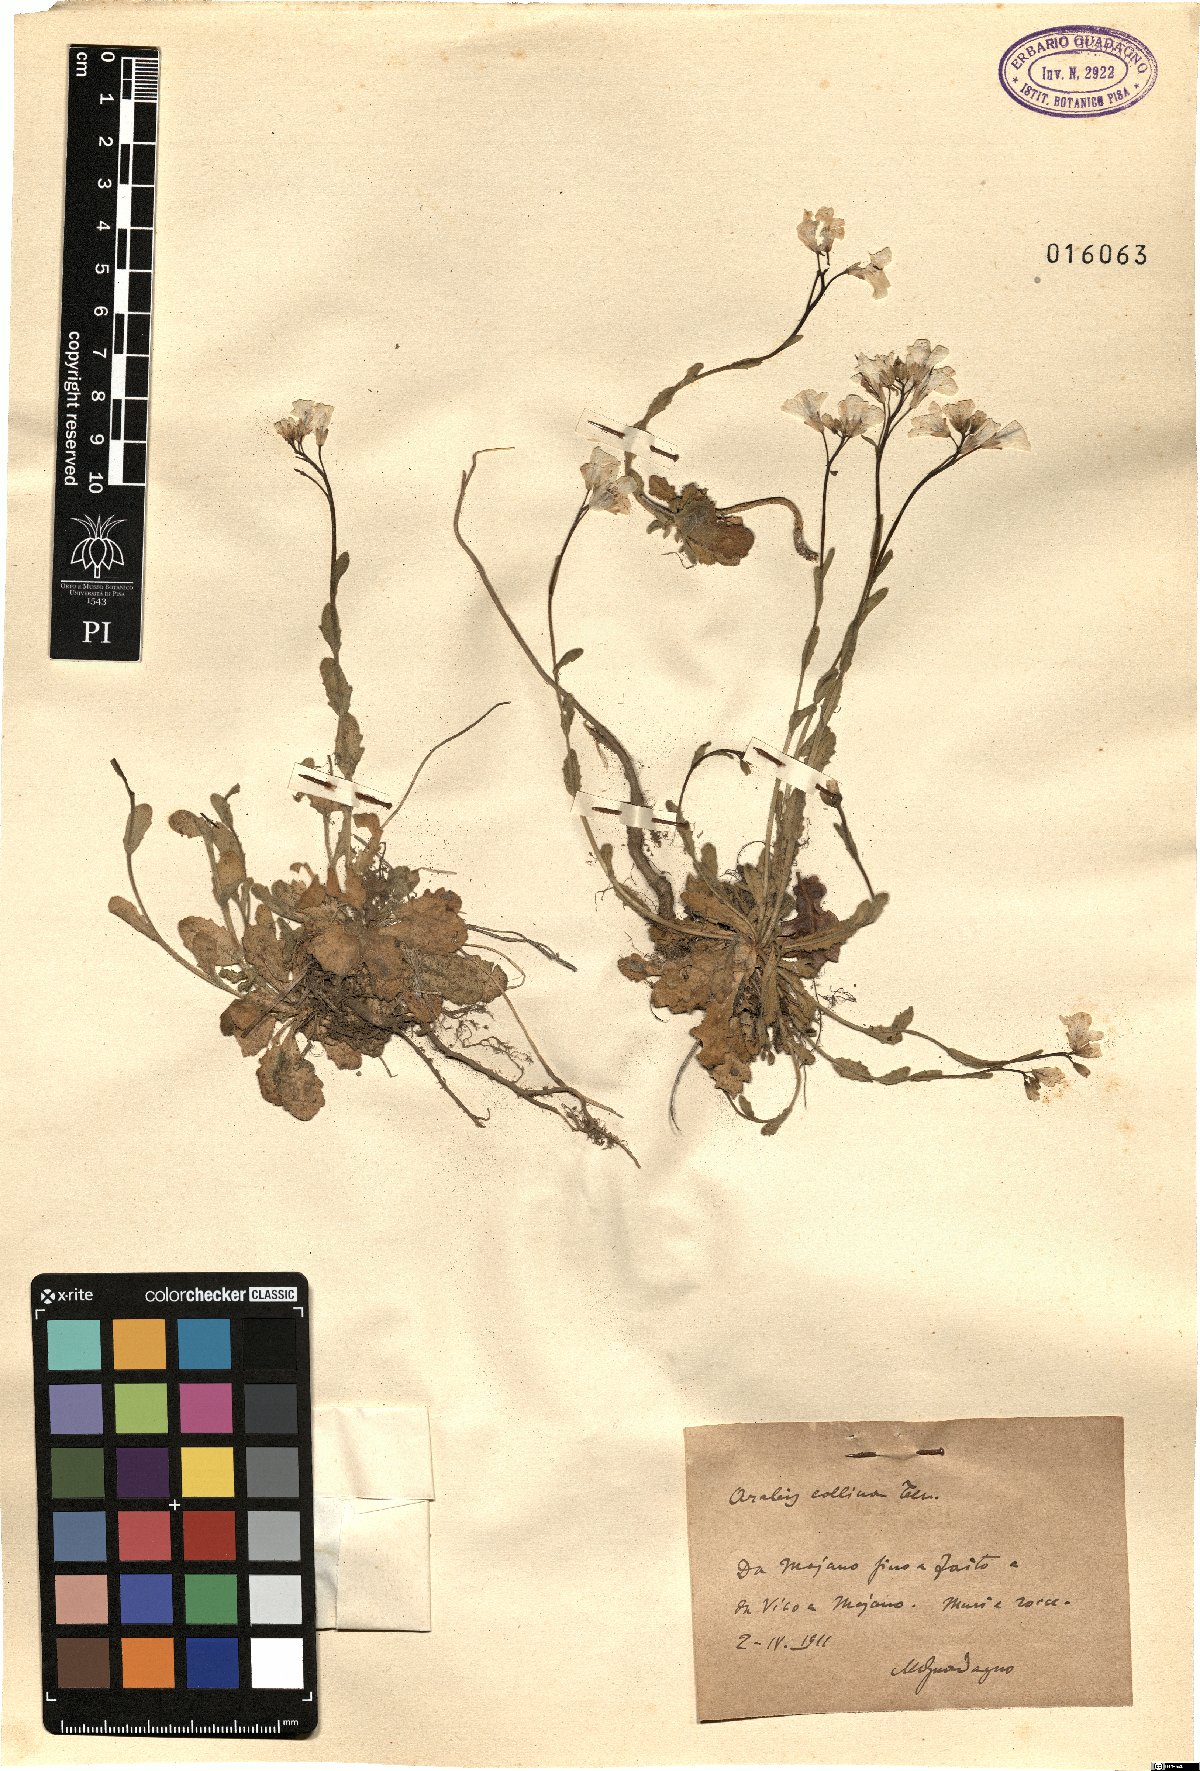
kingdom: Plantae
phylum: Tracheophyta
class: Magnoliopsida
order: Brassicales
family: Brassicaceae
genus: Arabis
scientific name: Arabis collina
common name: Rosy cress
